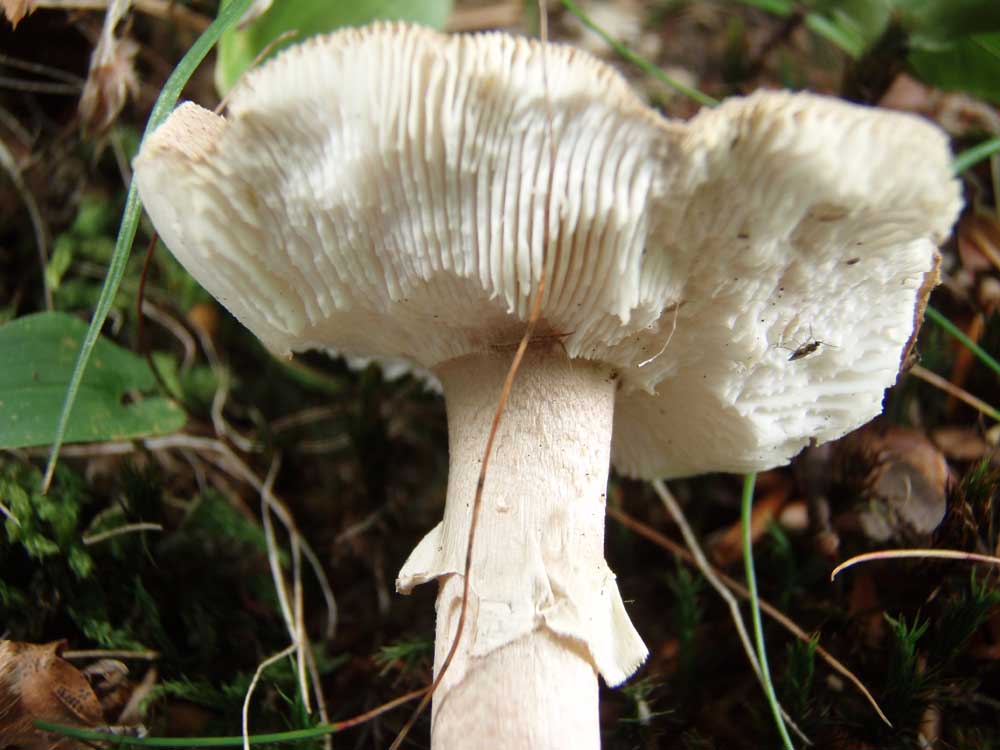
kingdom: Fungi
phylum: Basidiomycota
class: Agaricomycetes
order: Agaricales
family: Amanitaceae
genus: Amanita
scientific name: Amanita rubescens
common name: rødmende fluesvamp
